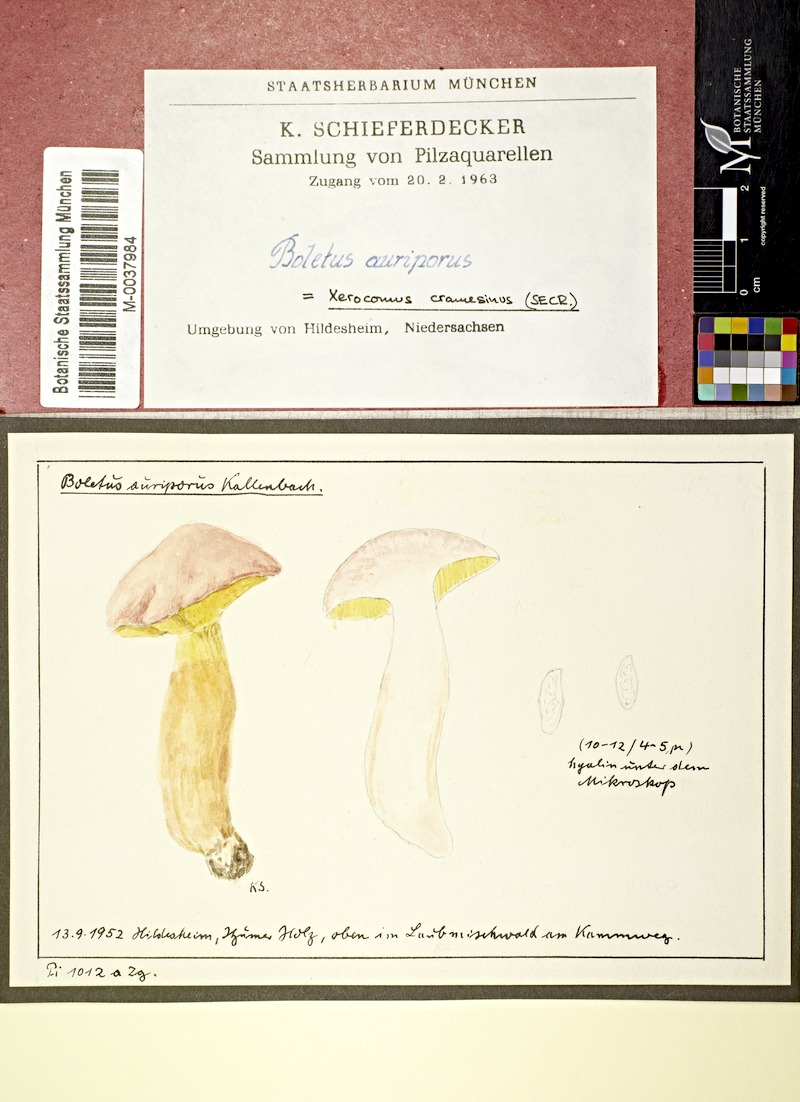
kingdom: Fungi
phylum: Basidiomycota
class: Agaricomycetes
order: Boletales
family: Boletaceae
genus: Aureoboletus
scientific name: Aureoboletus gentilis
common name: Gilded bolete
